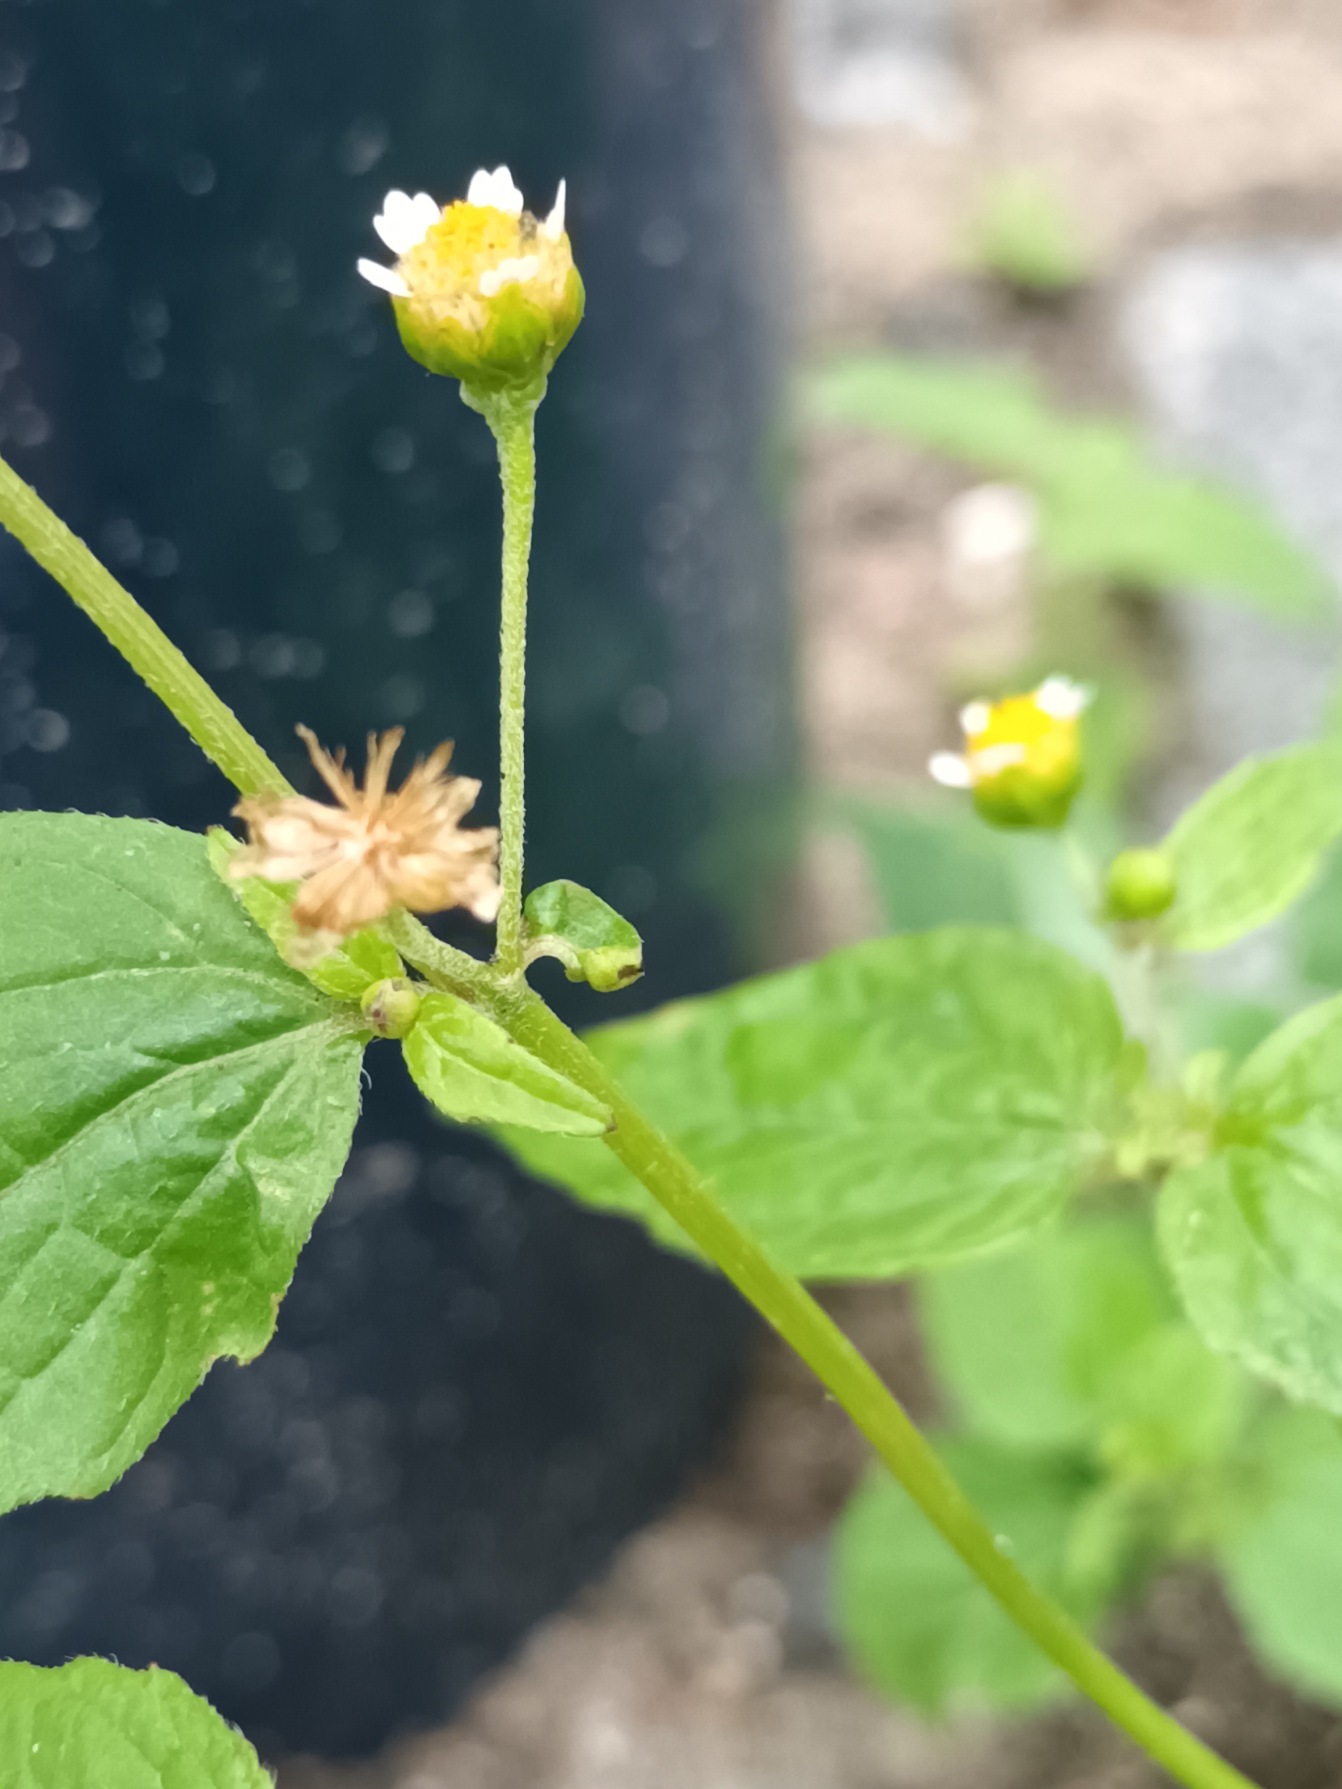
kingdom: Plantae
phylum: Tracheophyta
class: Magnoliopsida
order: Asterales
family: Asteraceae
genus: Galinsoga
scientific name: Galinsoga parviflora
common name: Håret kortstråle
